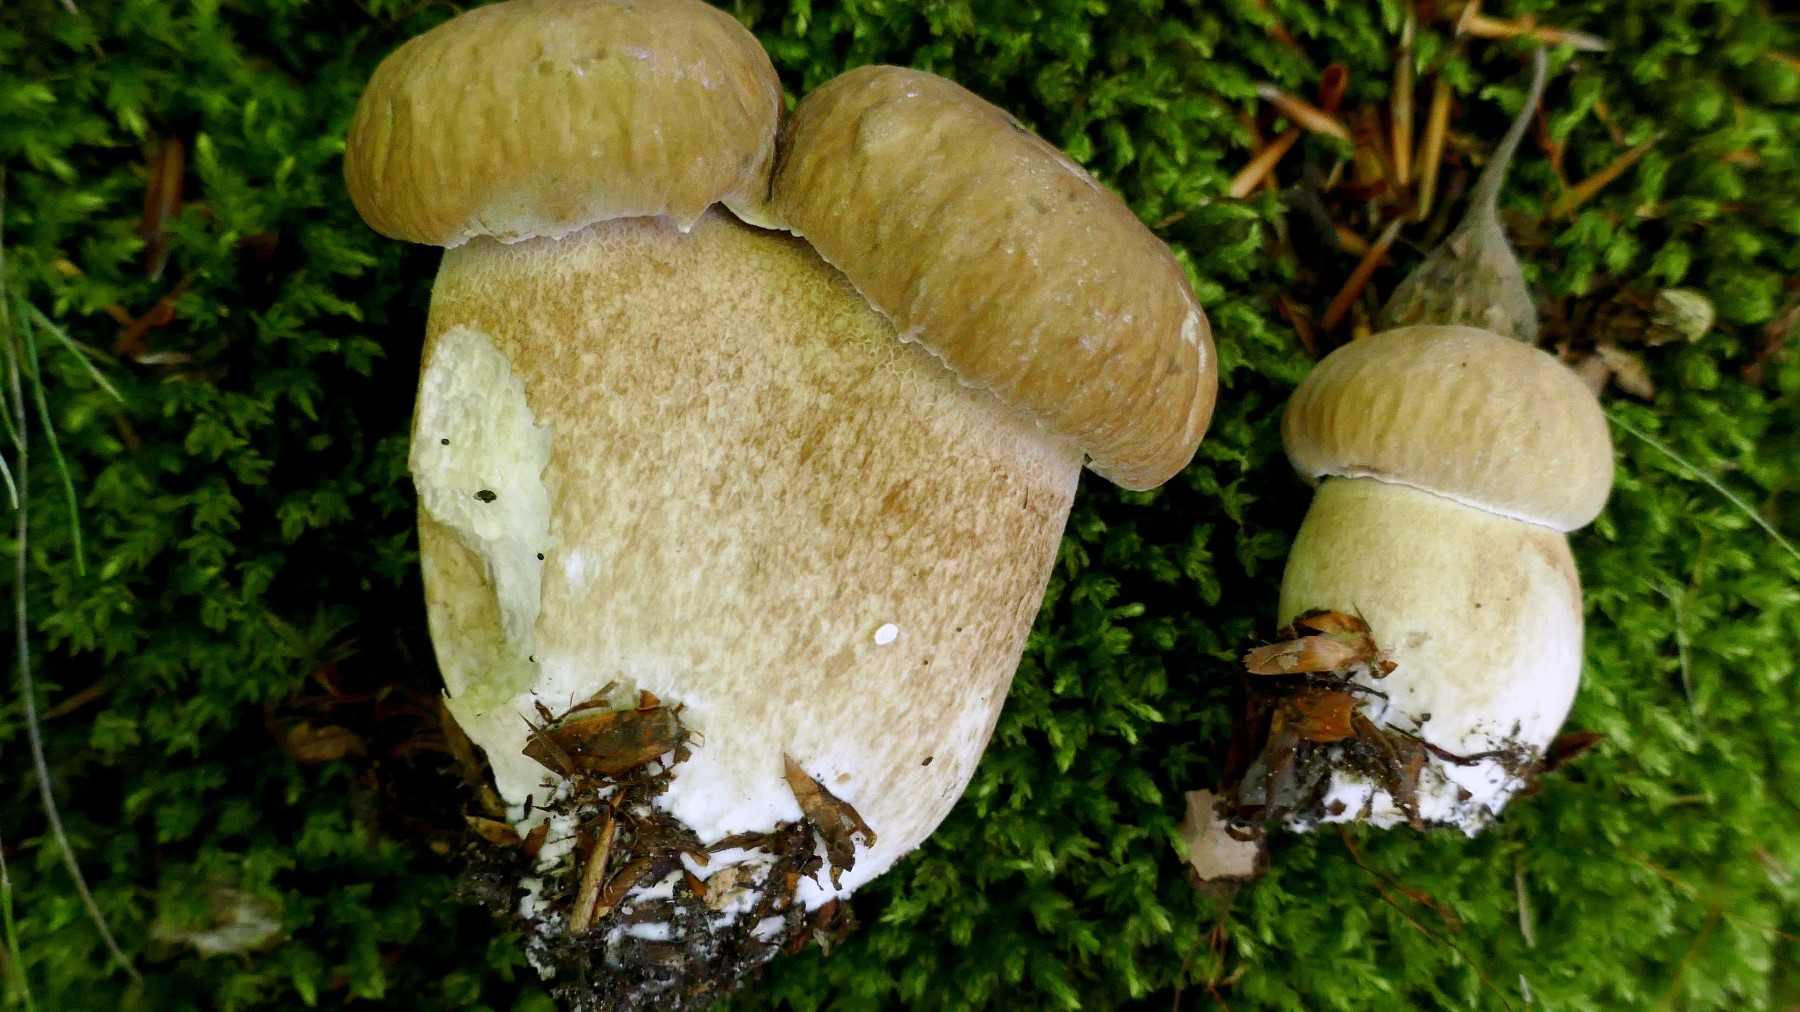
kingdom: Fungi
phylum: Basidiomycota
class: Agaricomycetes
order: Boletales
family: Boletaceae
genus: Boletus
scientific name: Boletus reticulatus
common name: sommer-rørhat
